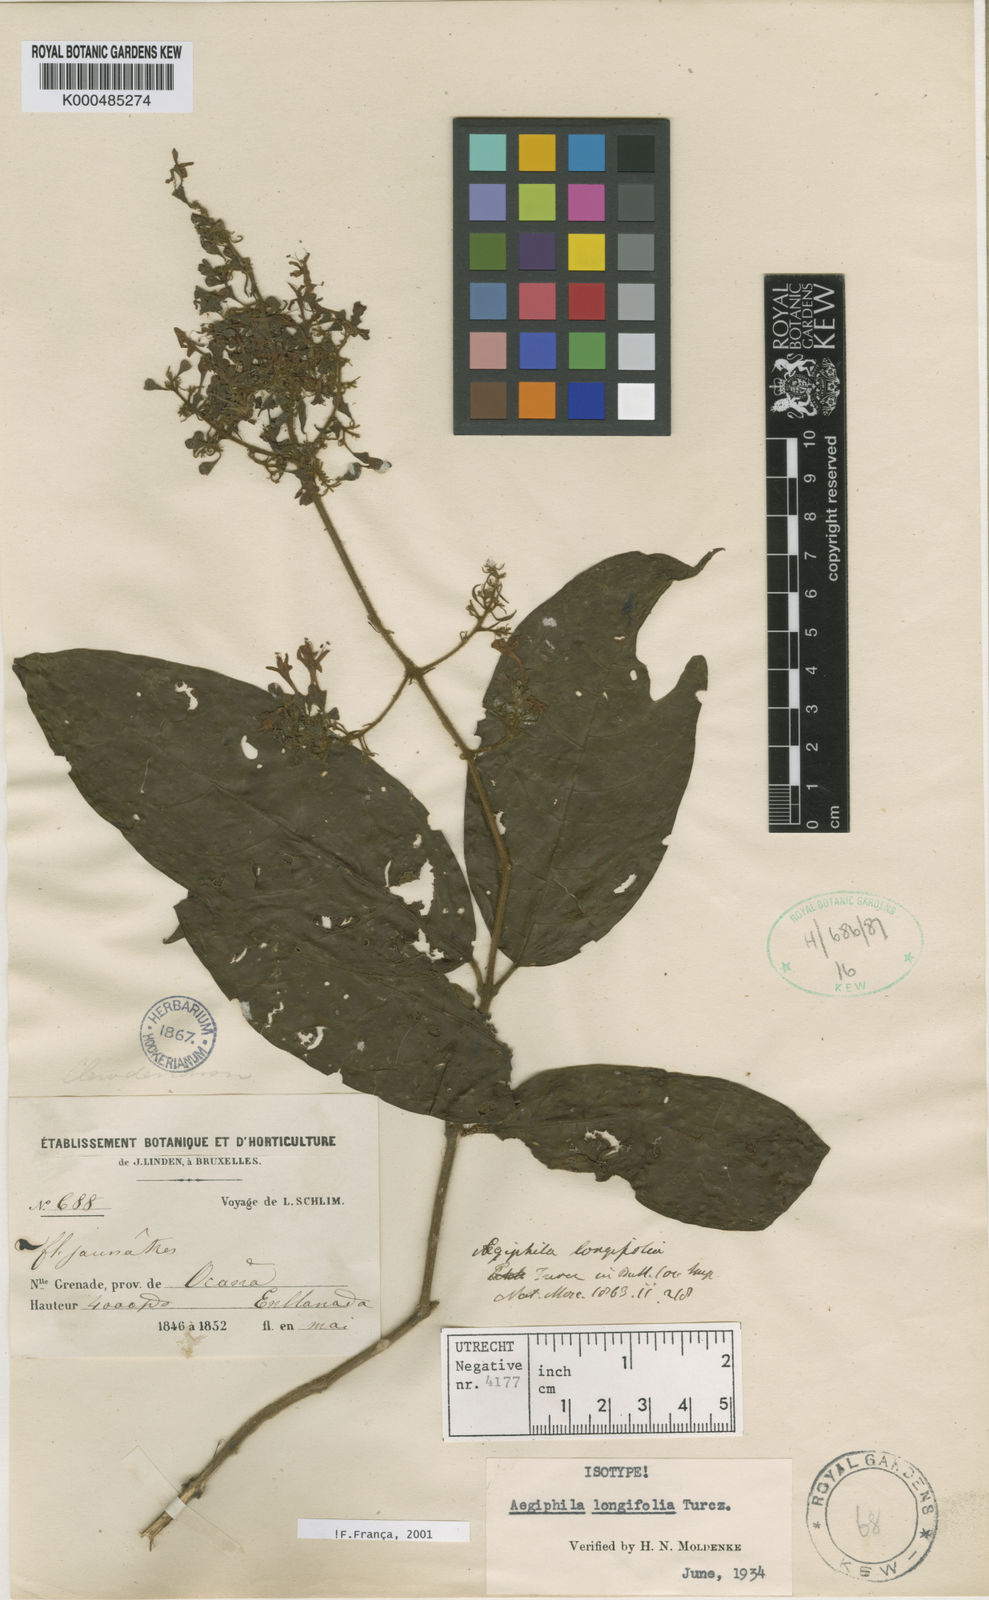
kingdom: Plantae
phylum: Tracheophyta
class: Magnoliopsida
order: Lamiales
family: Lamiaceae
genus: Aegiphila
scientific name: Aegiphila longifolia
